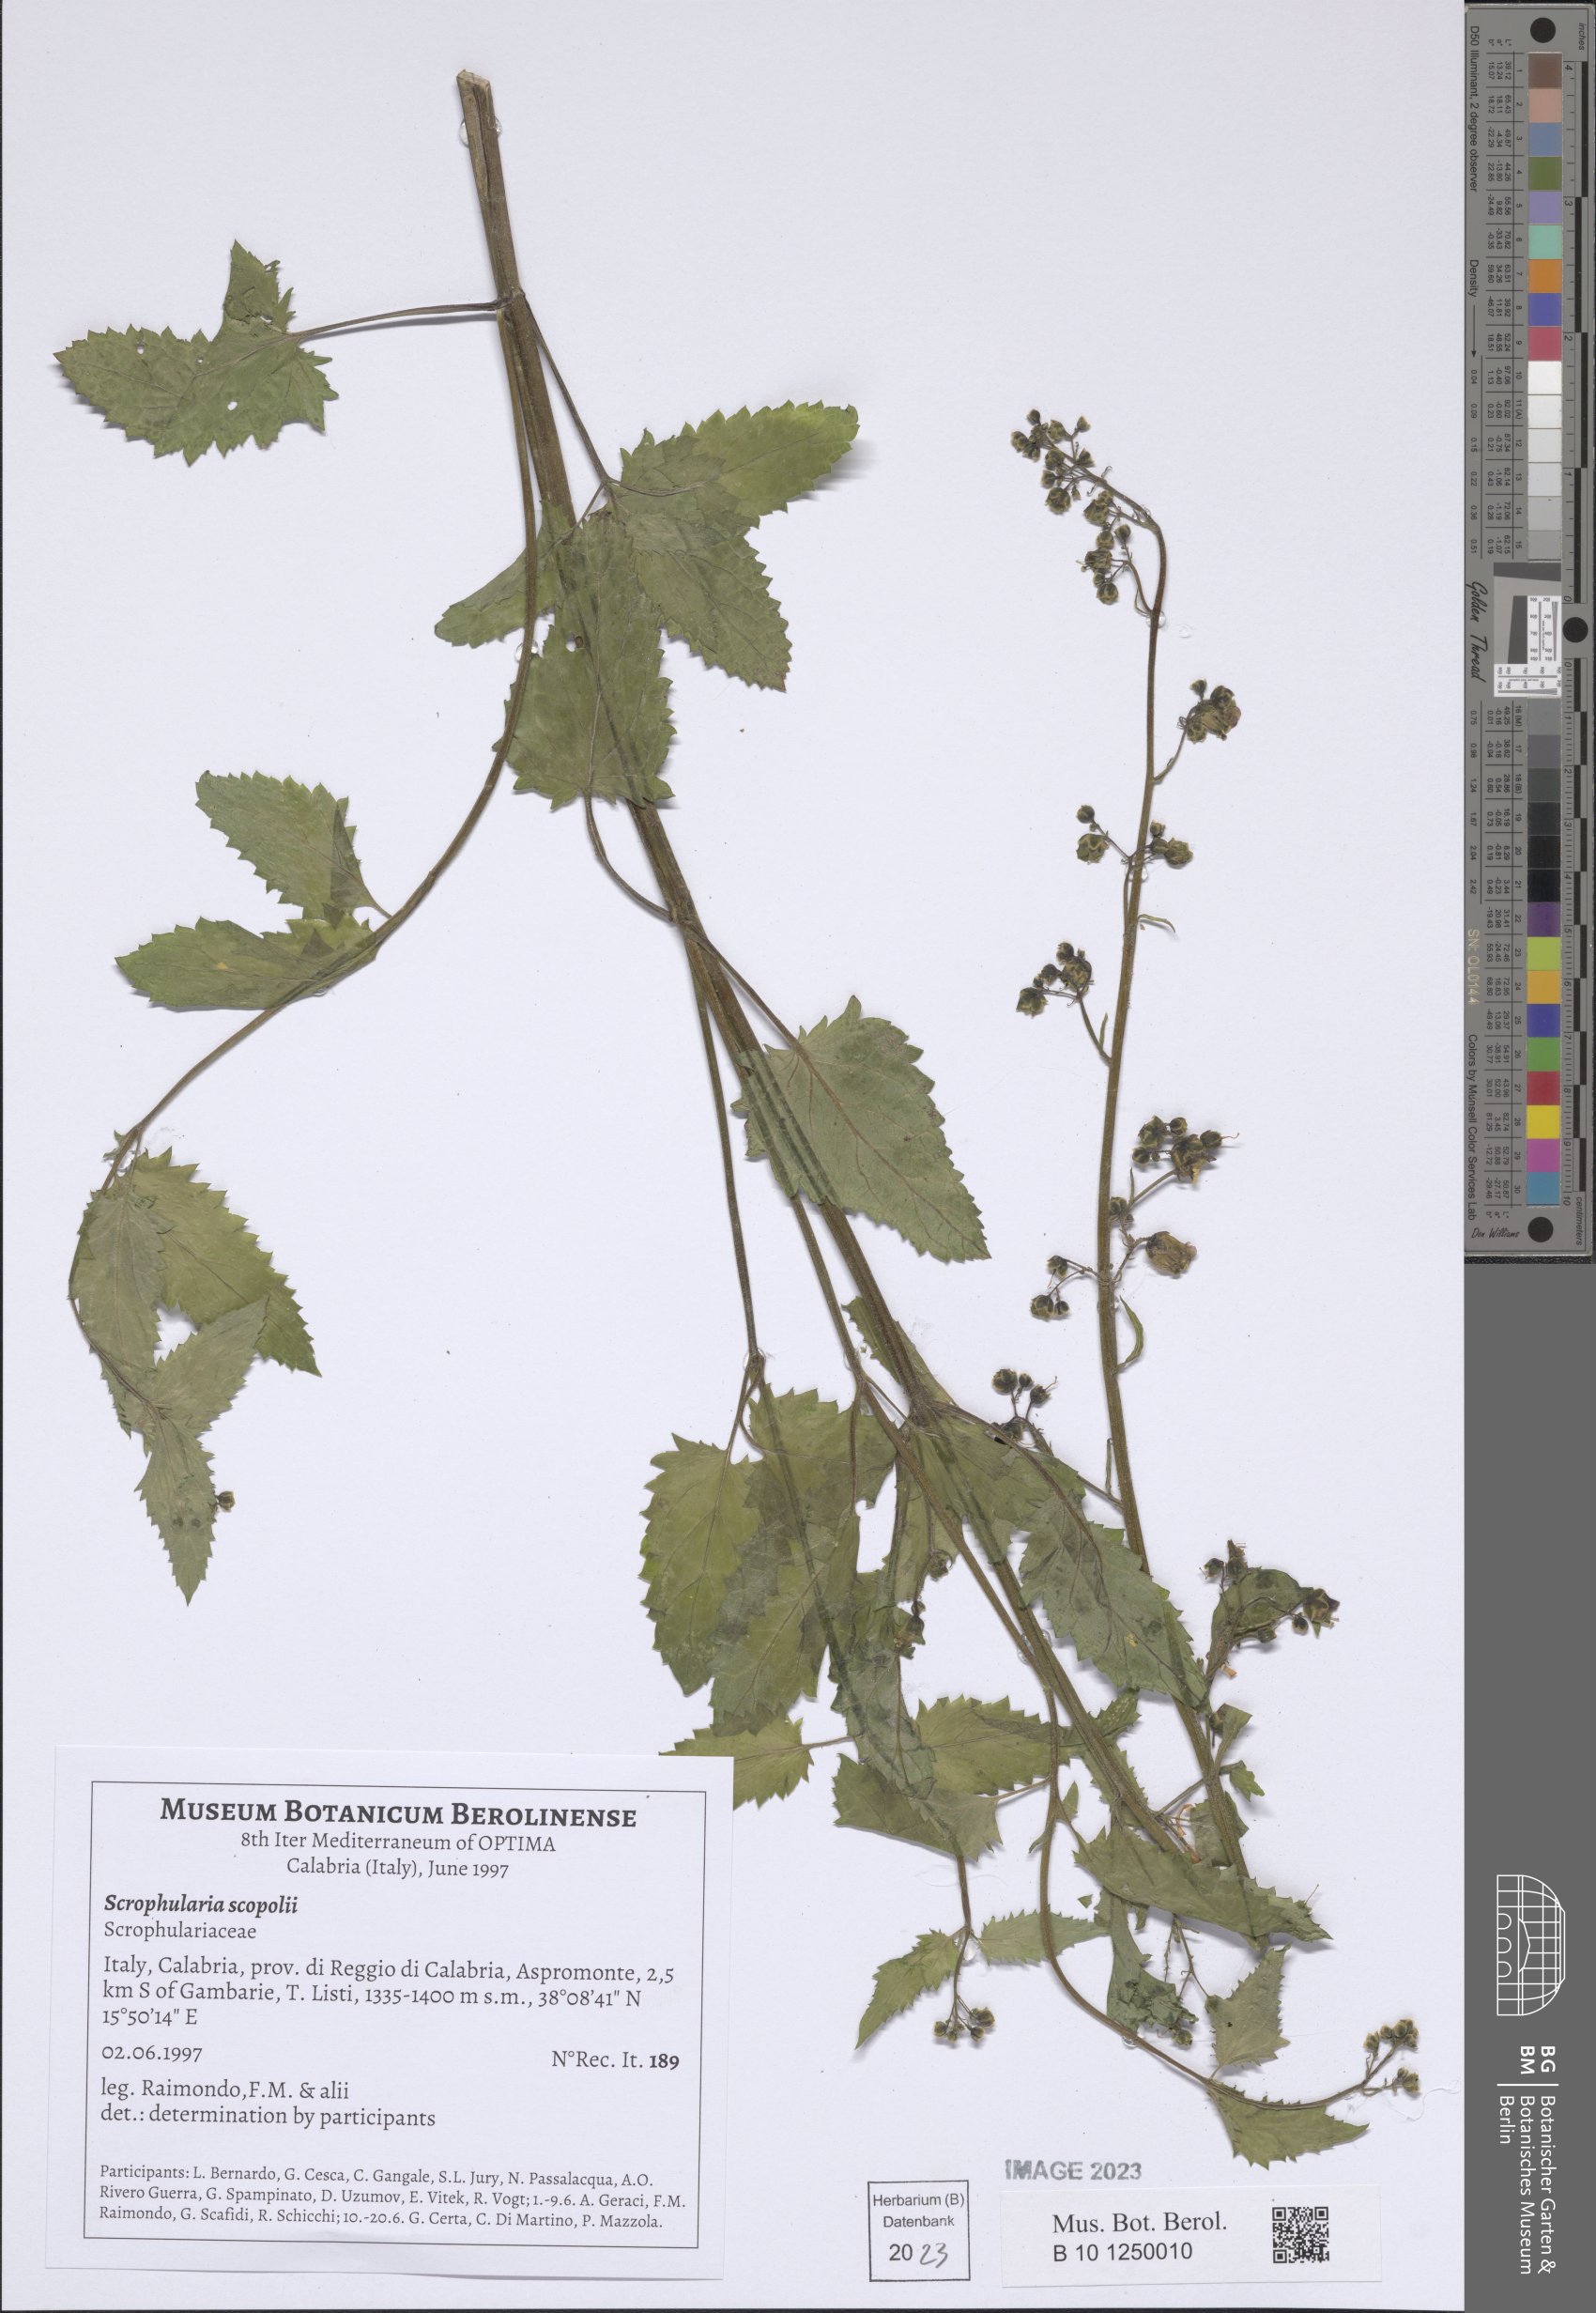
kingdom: Plantae
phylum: Tracheophyta
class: Magnoliopsida
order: Lamiales
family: Scrophulariaceae
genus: Scrophularia
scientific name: Scrophularia scopolii
